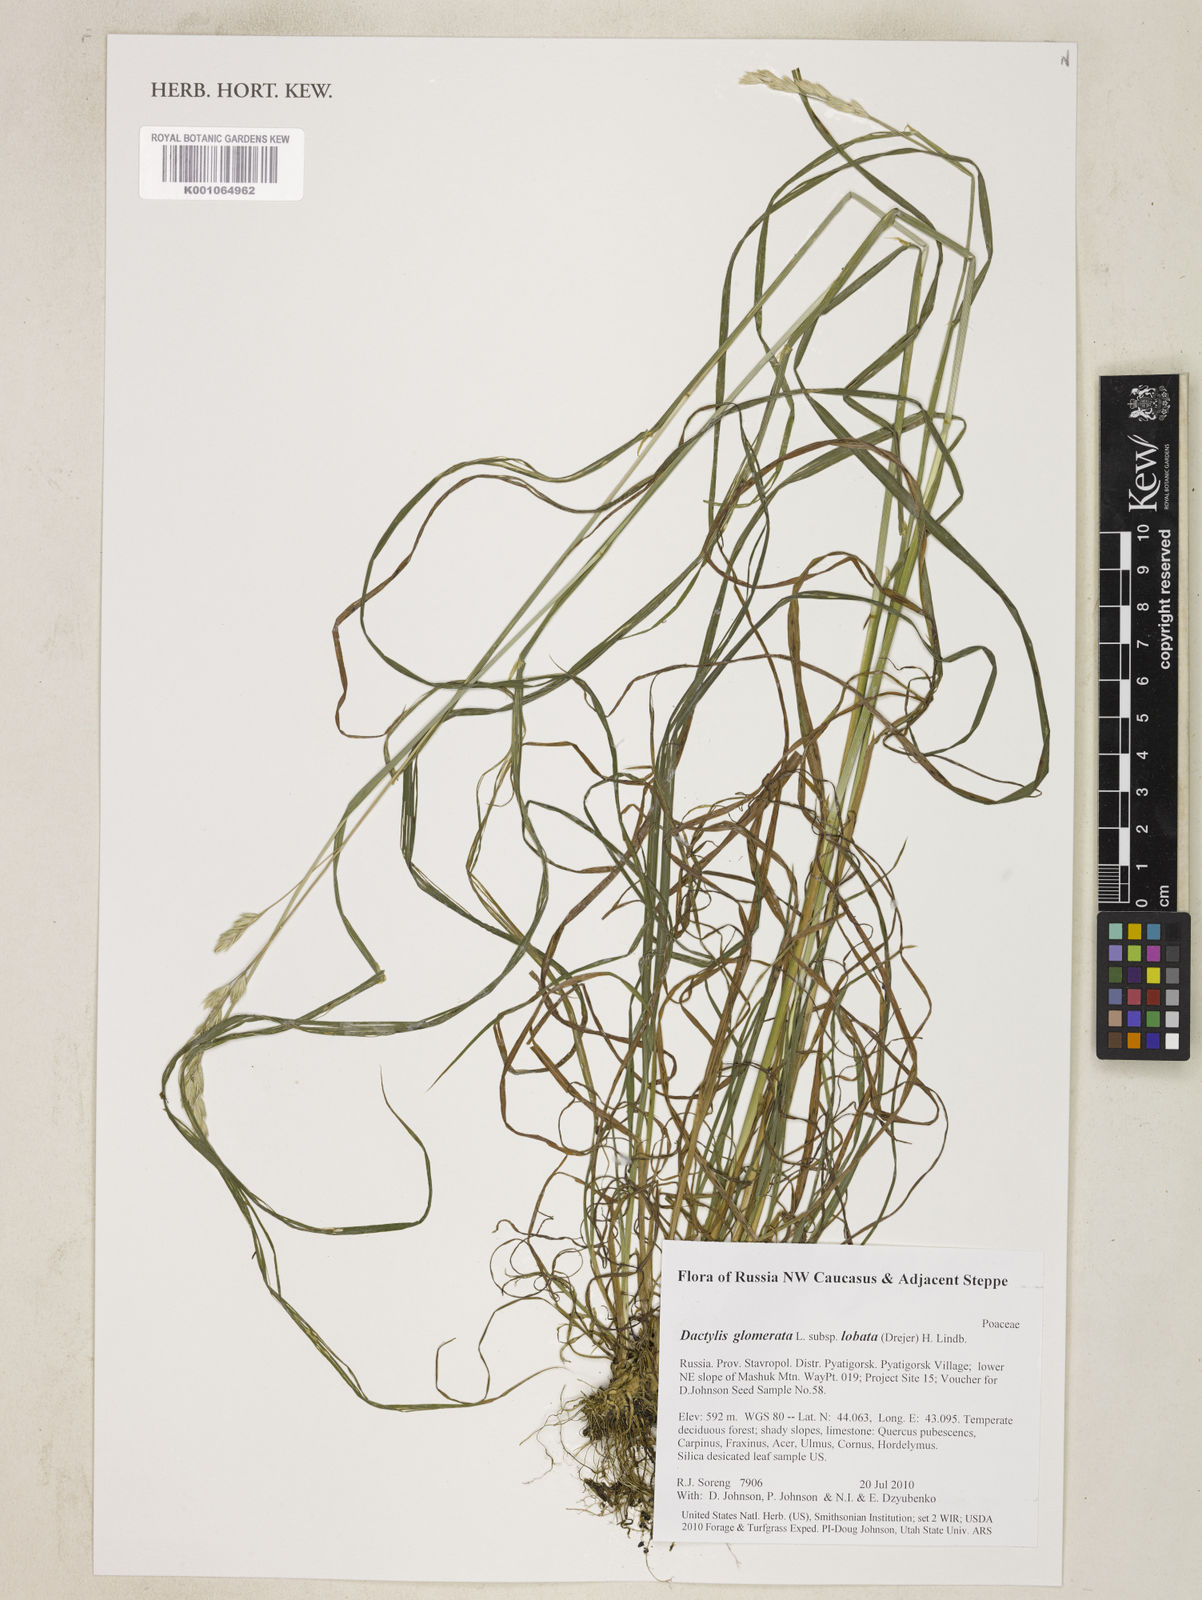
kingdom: Plantae
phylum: Tracheophyta
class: Liliopsida
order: Poales
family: Poaceae
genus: Dactylis
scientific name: Dactylis glomerata
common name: Orchardgrass
